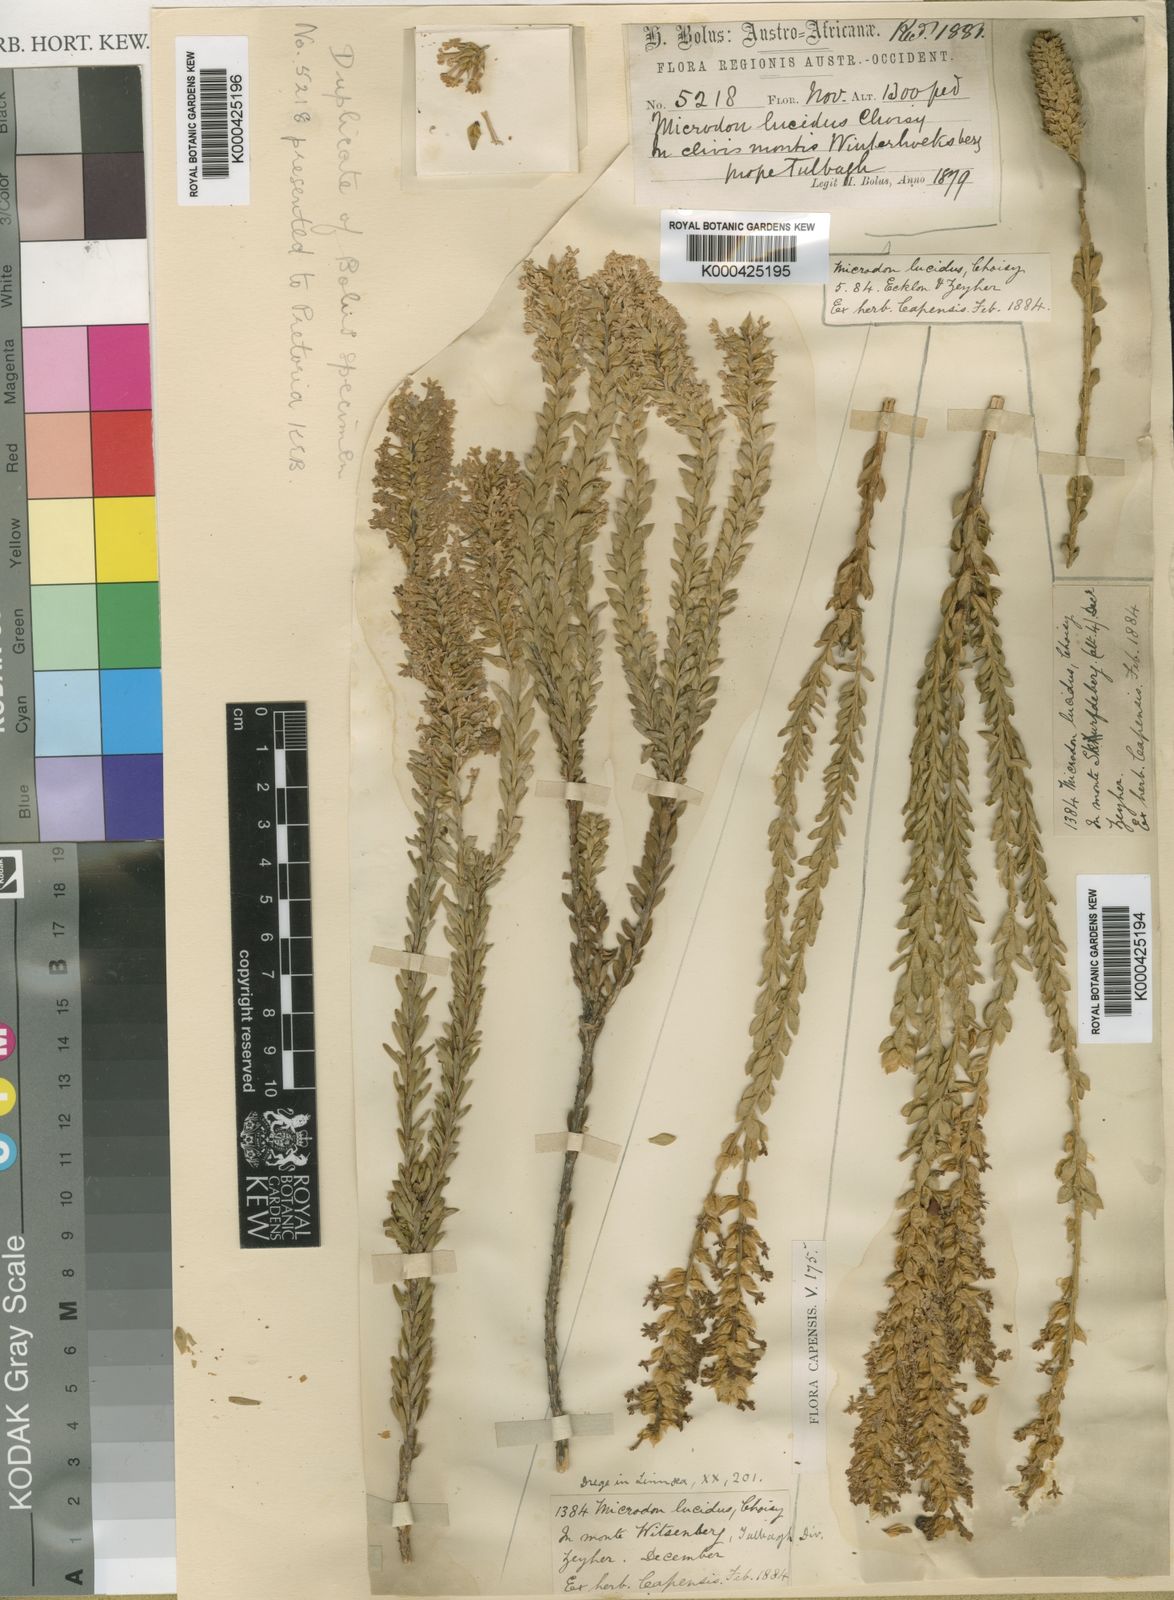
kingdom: Plantae
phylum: Tracheophyta
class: Magnoliopsida
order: Lamiales
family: Scrophulariaceae
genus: Microdon
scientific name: Microdon parviflorus
